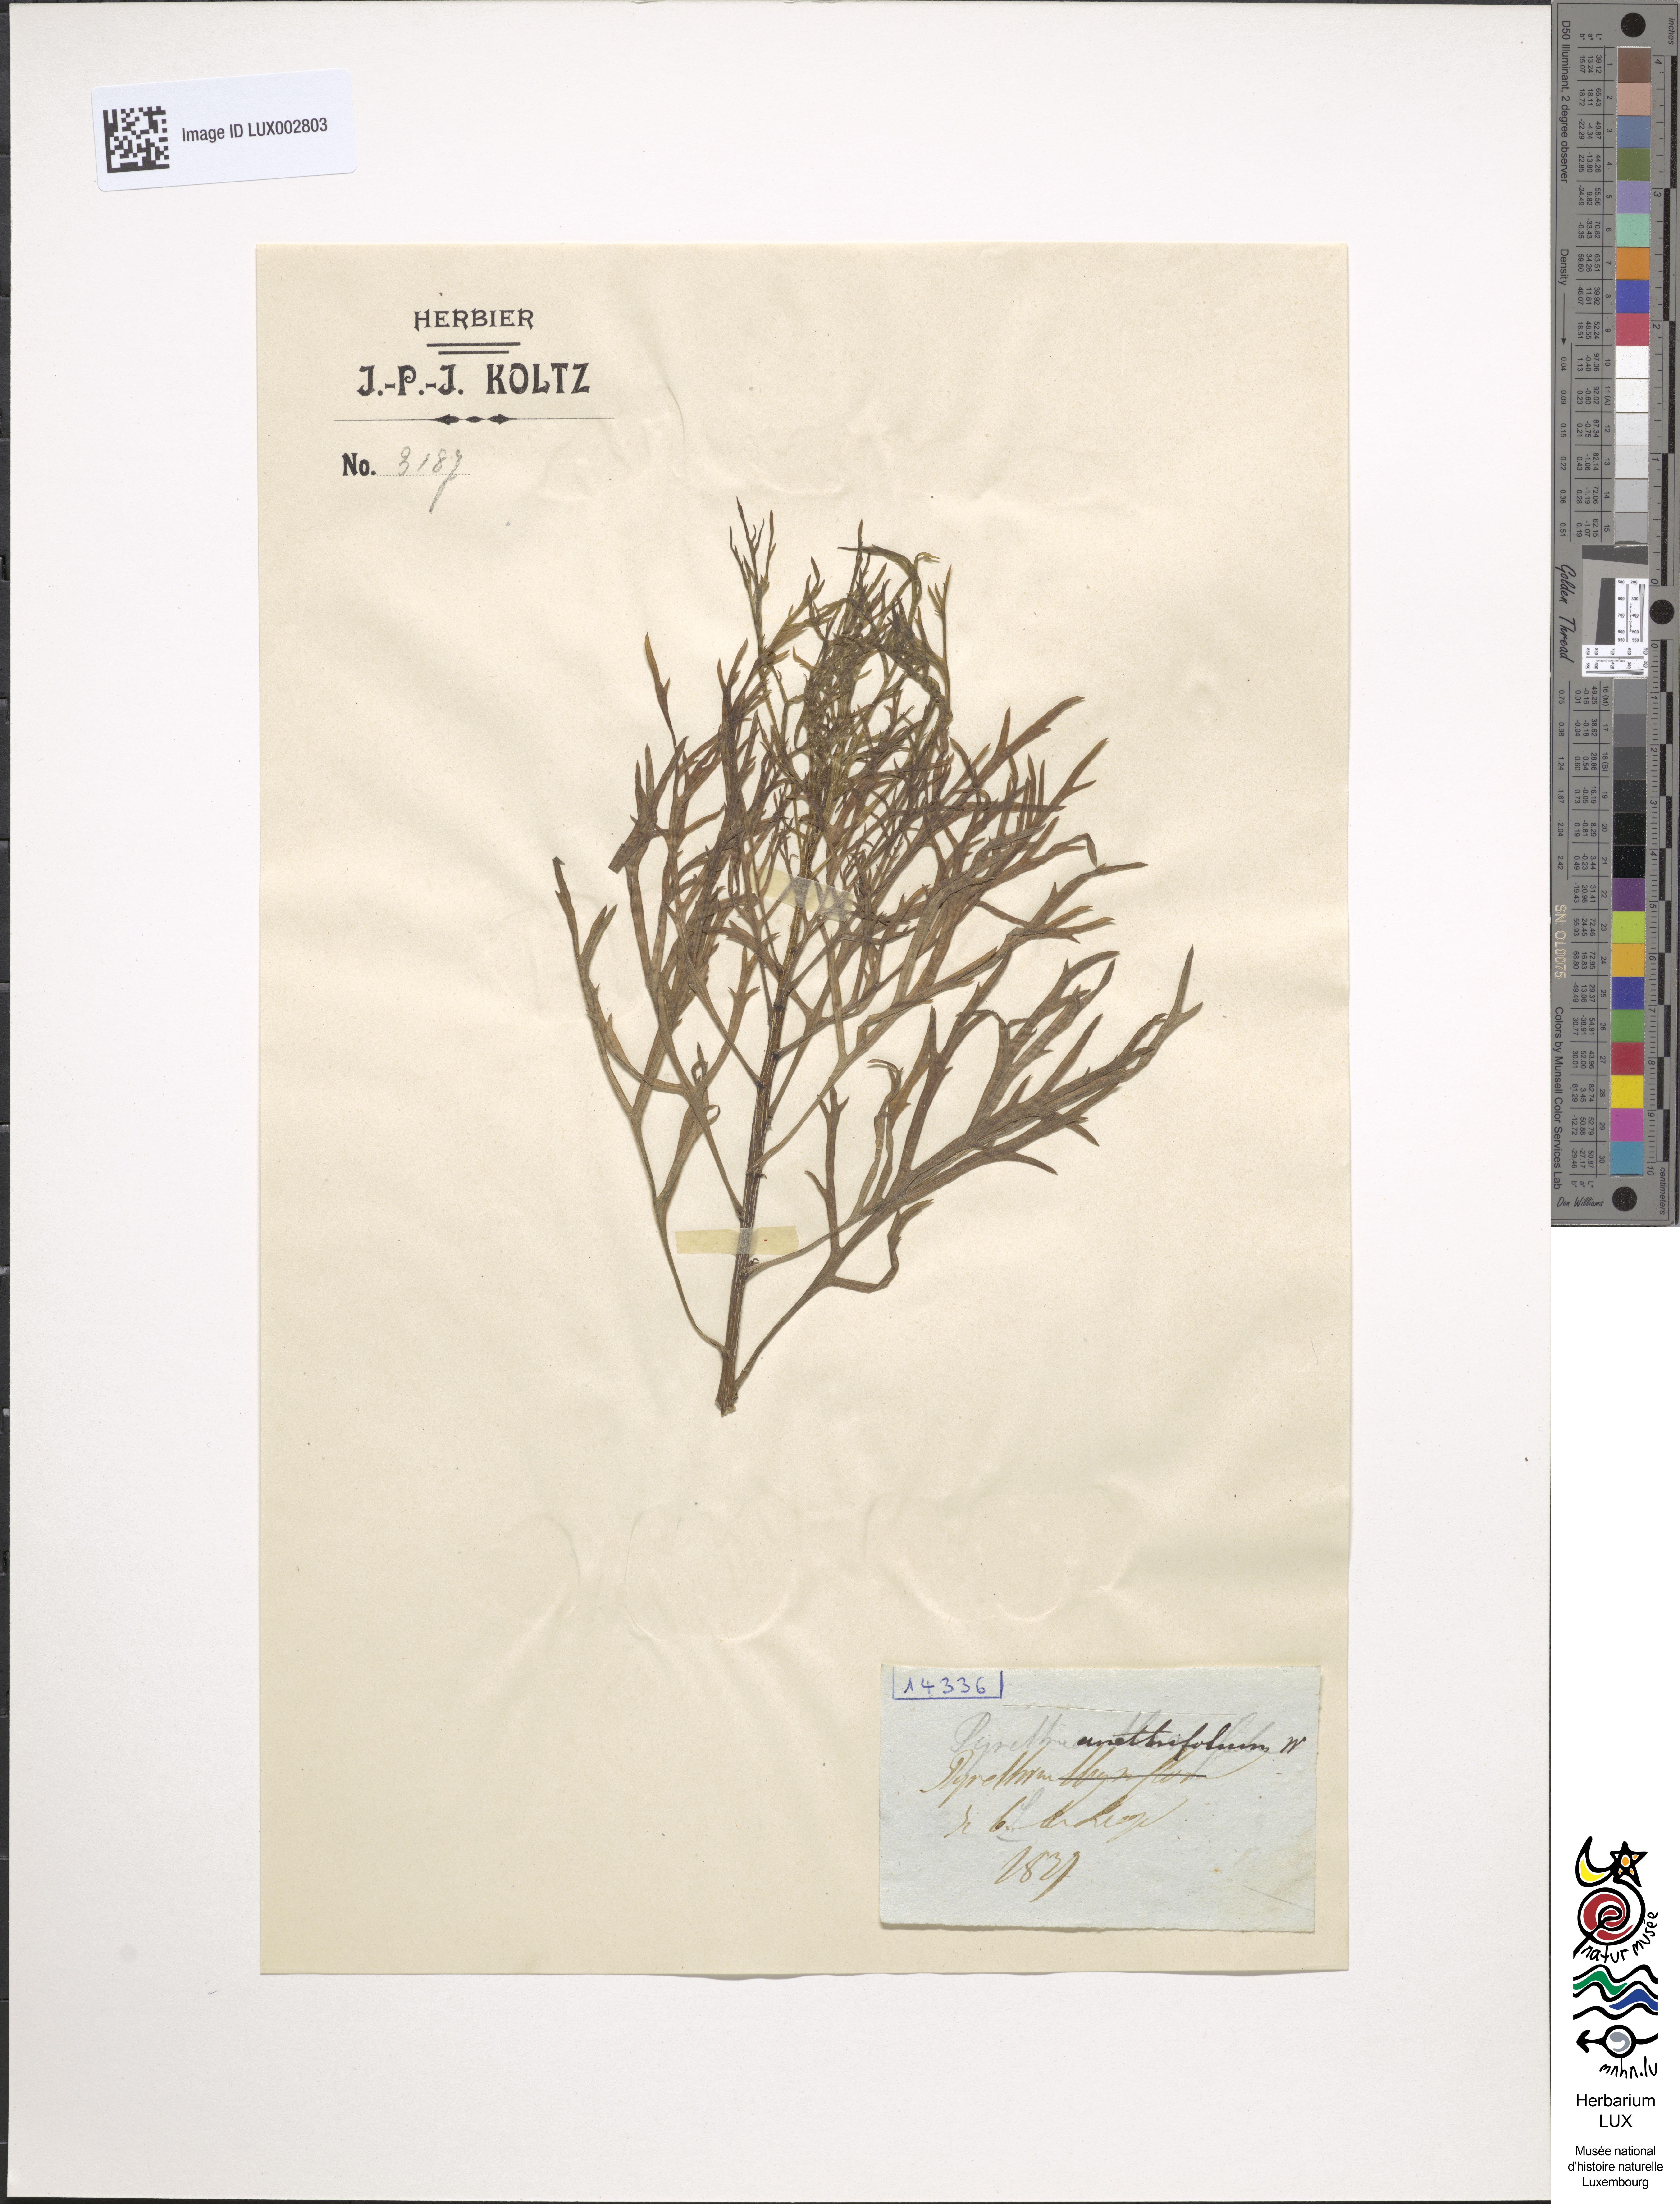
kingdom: Plantae
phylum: Tracheophyta
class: Magnoliopsida
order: Asterales
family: Asteraceae
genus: Argyranthemum
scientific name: Argyranthemum tenerifae
